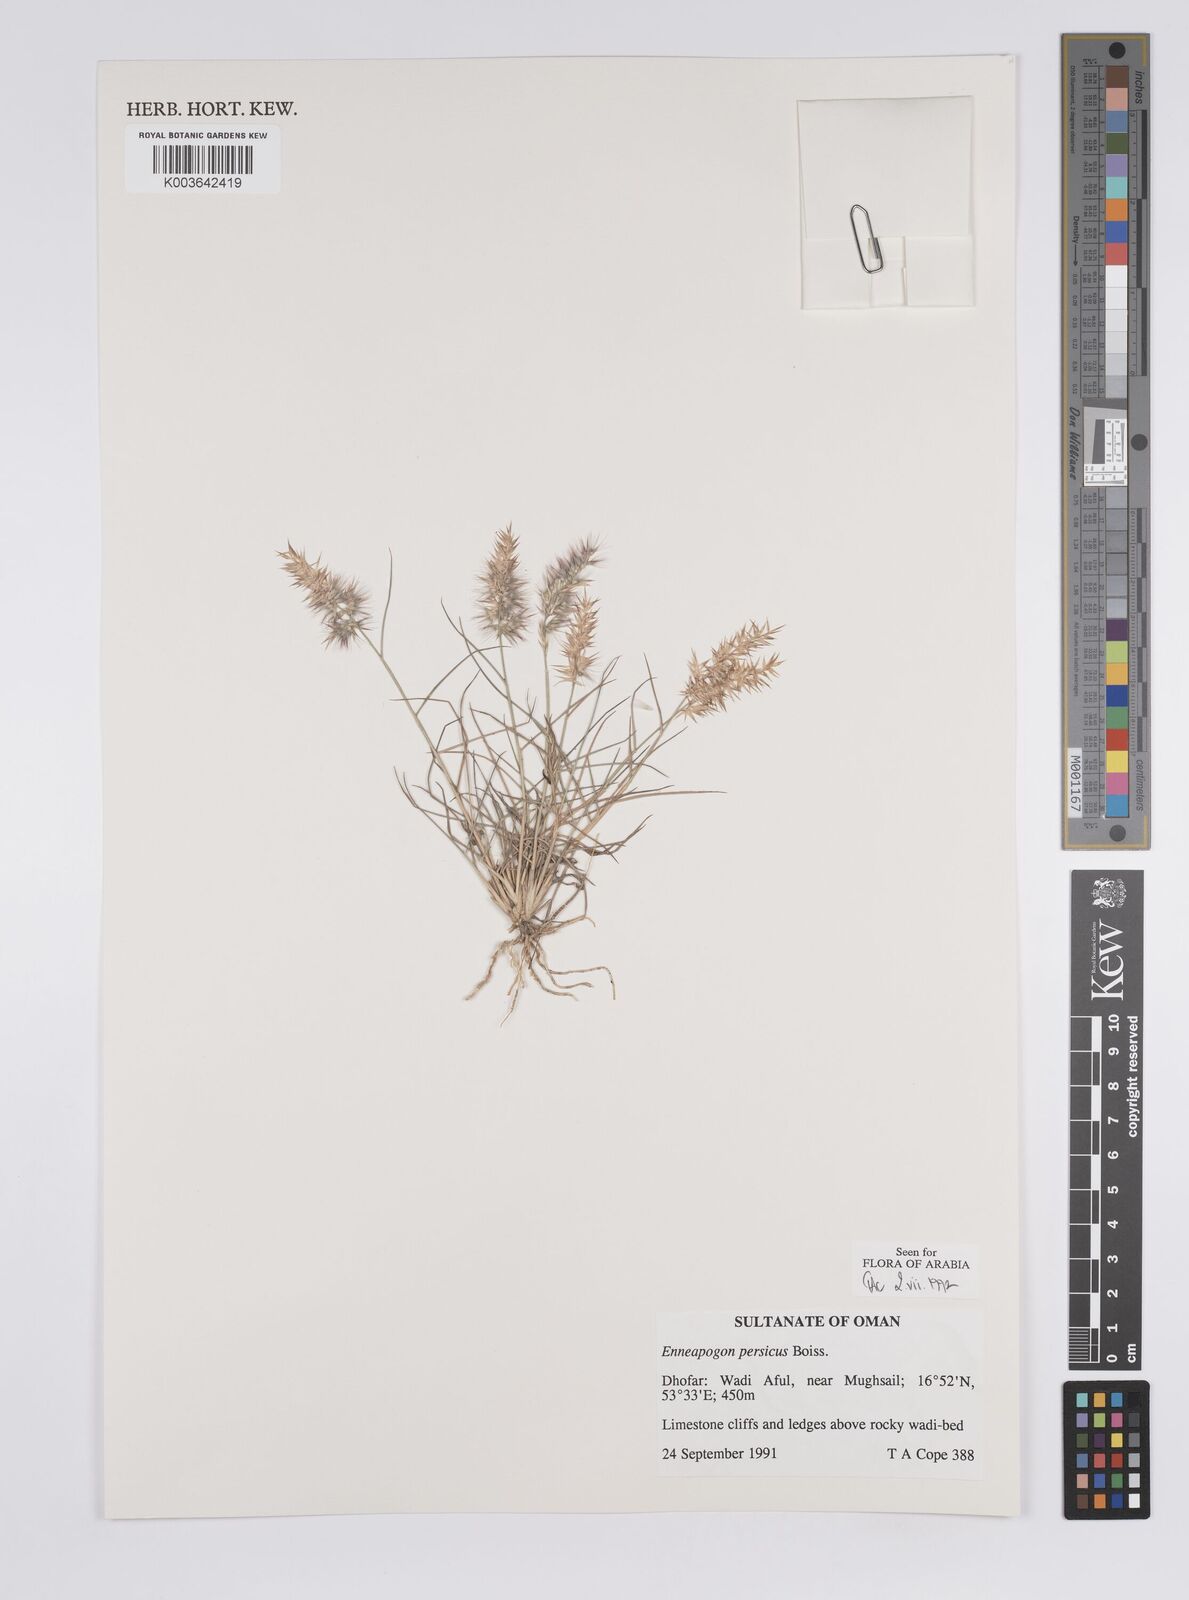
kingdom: Plantae
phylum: Tracheophyta
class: Liliopsida
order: Poales
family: Poaceae
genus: Enneapogon
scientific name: Enneapogon persicus
